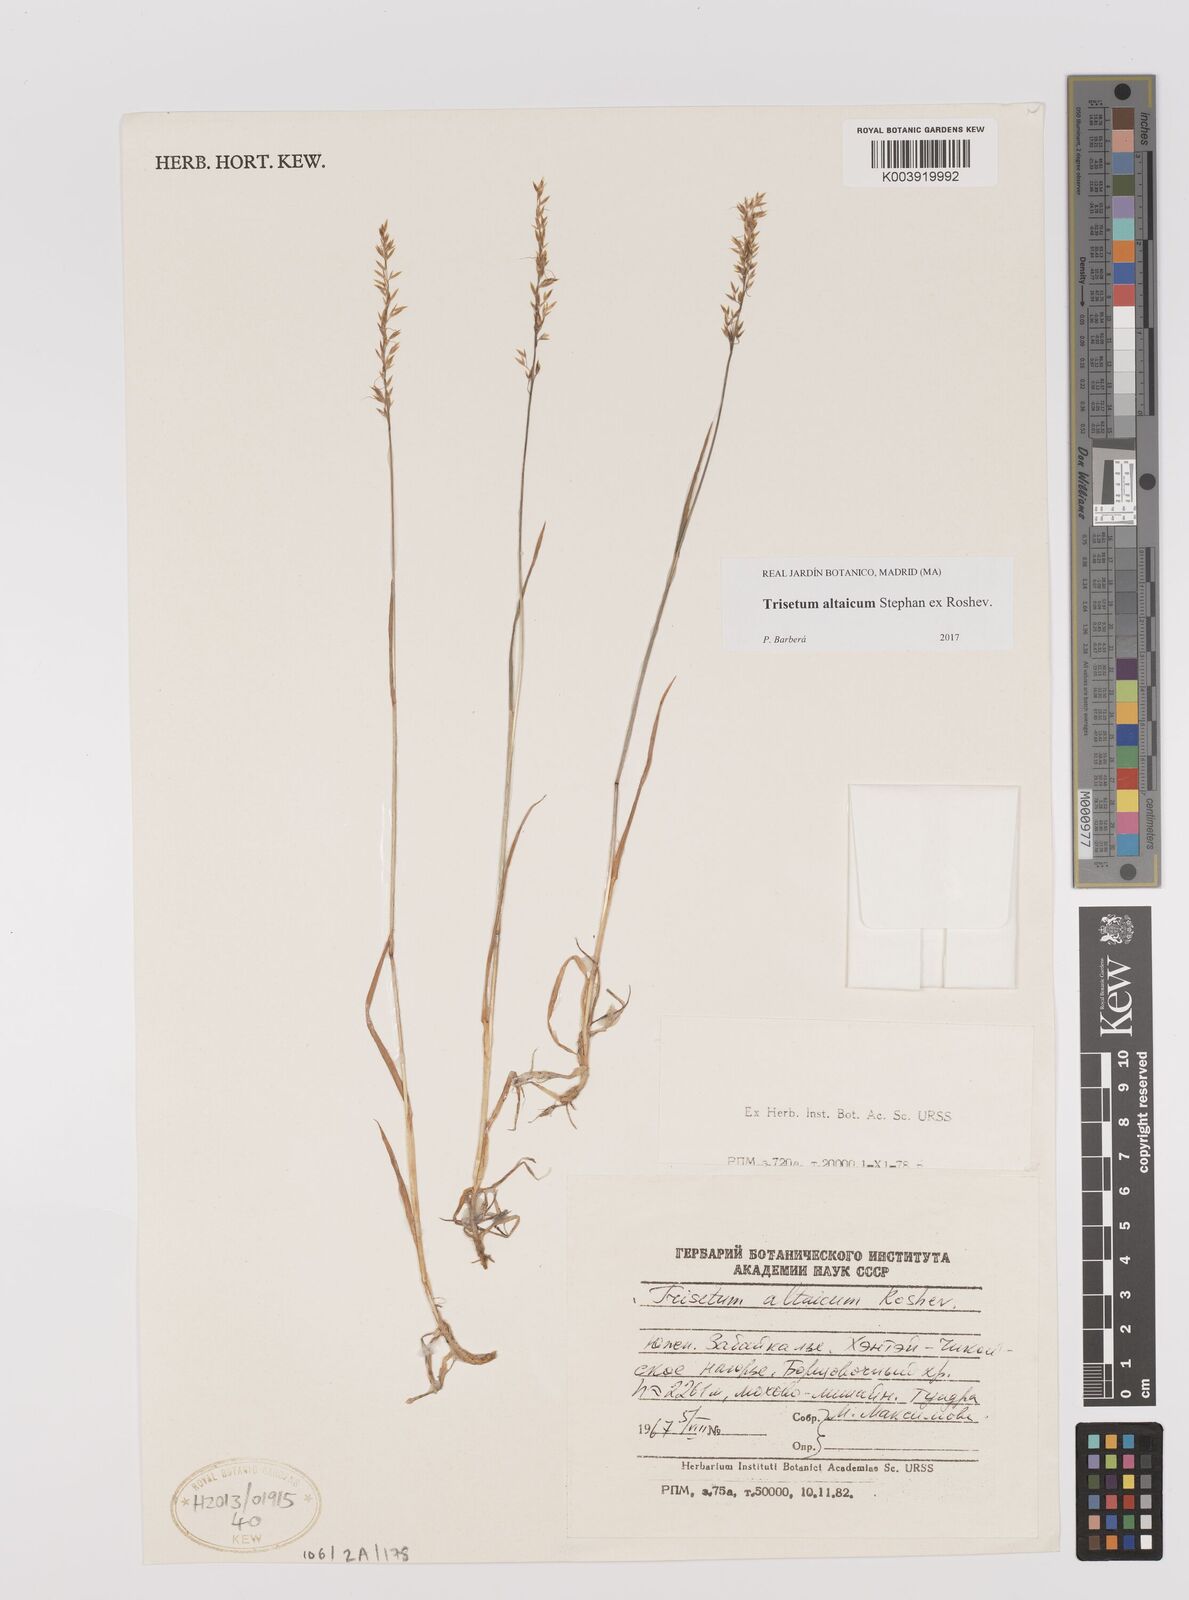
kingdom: Plantae
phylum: Tracheophyta
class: Liliopsida
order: Poales
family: Poaceae
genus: Trisetum
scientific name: Trisetum altaicum
